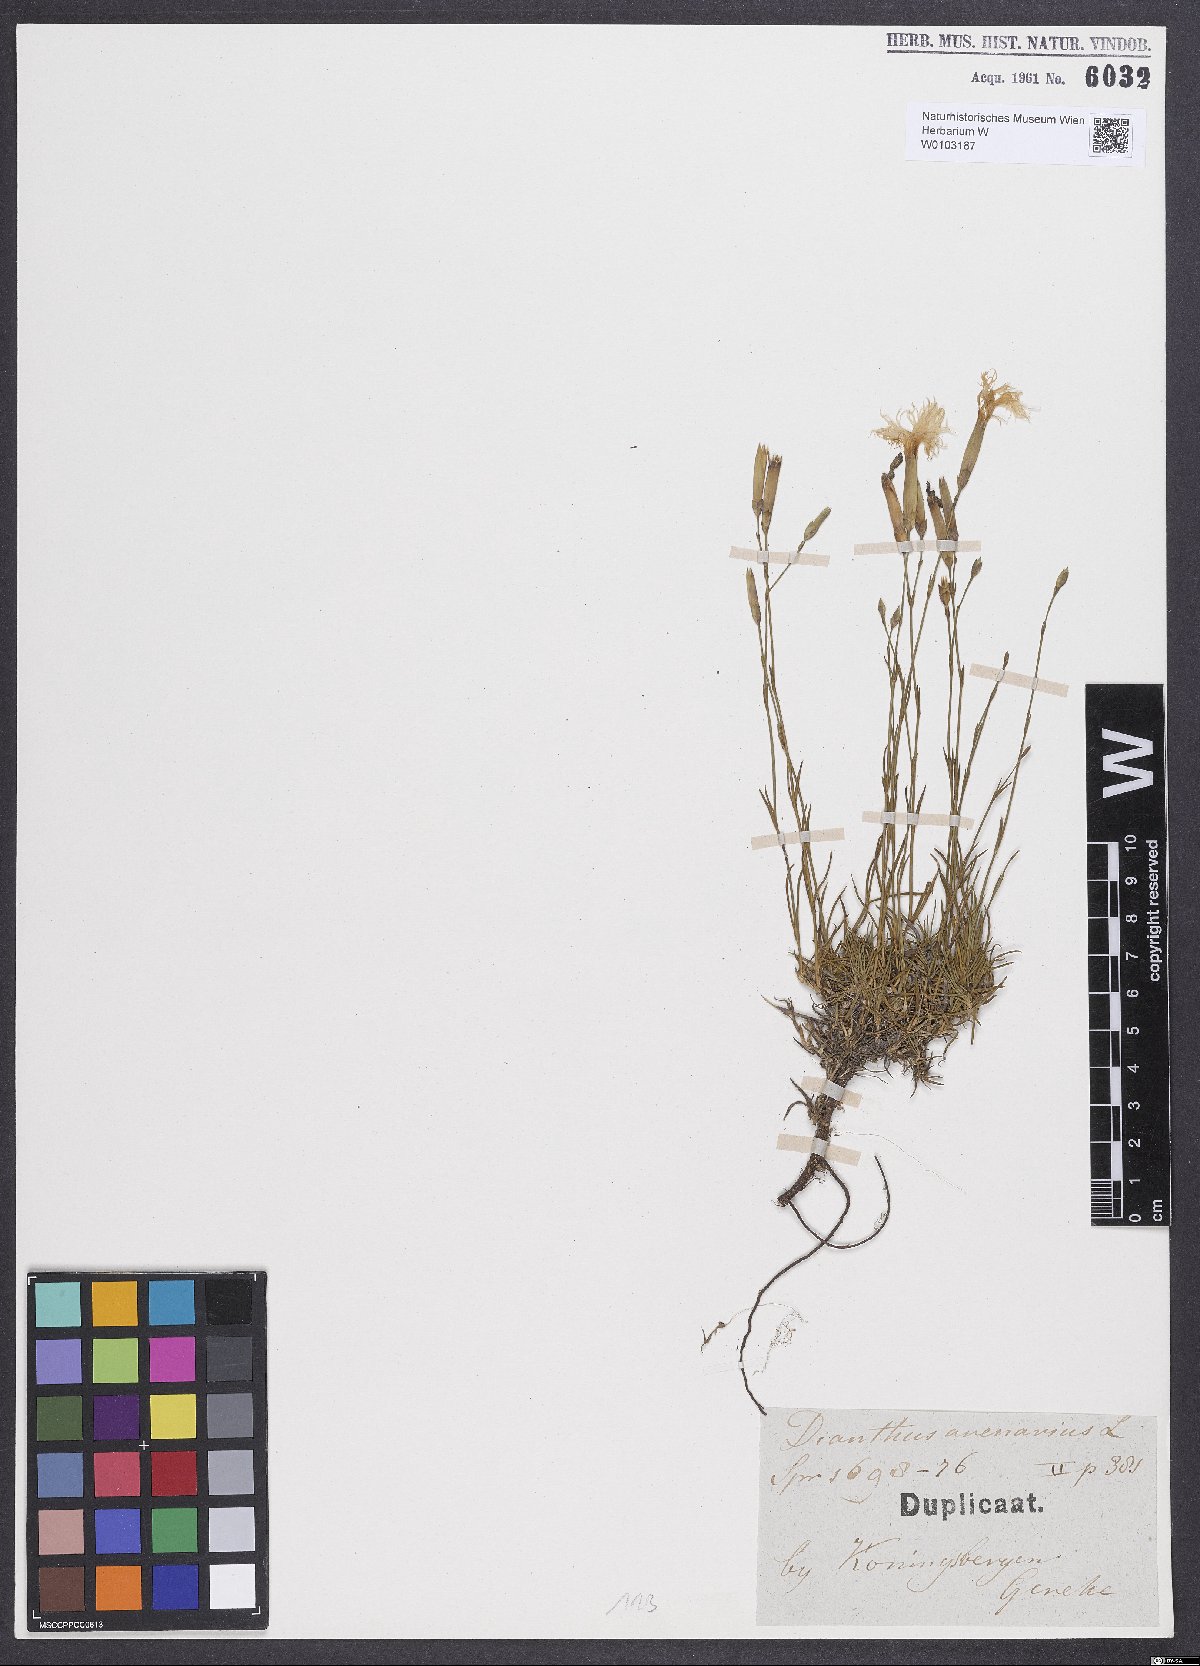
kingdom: Plantae
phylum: Tracheophyta
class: Magnoliopsida
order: Caryophyllales
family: Caryophyllaceae
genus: Dianthus
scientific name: Dianthus arenarius
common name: Stone pink
